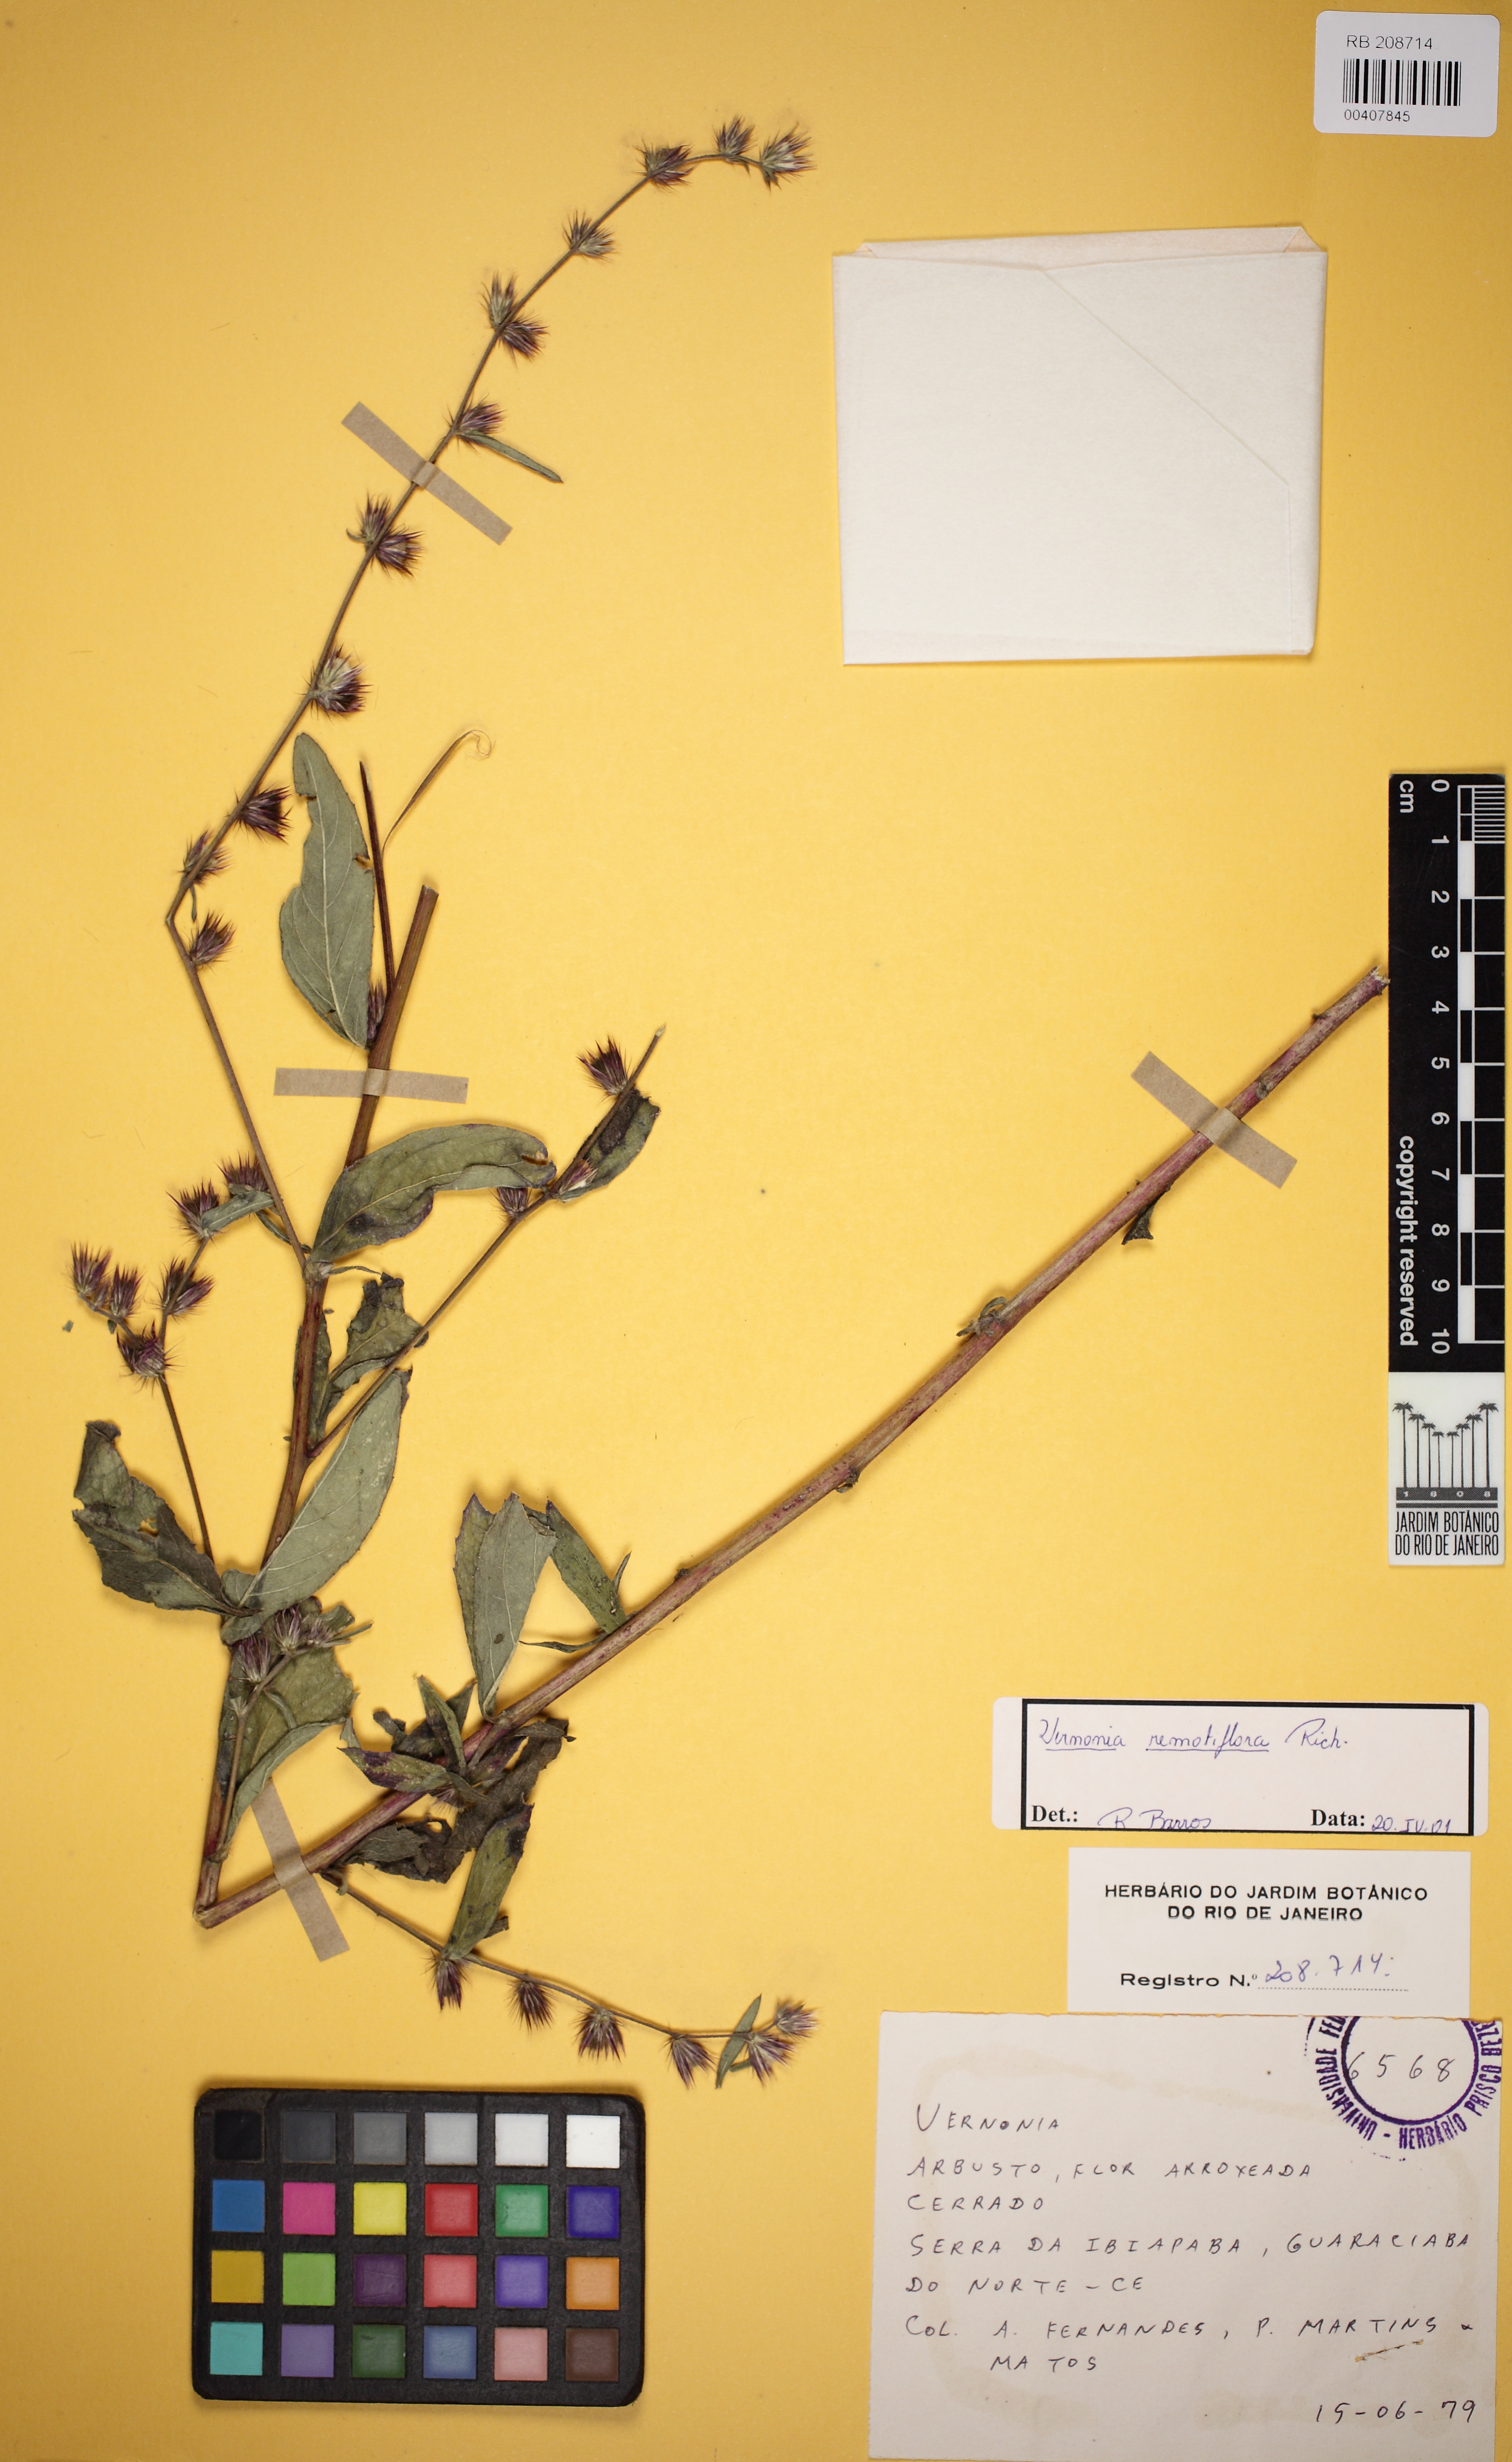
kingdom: Plantae
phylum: Tracheophyta
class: Magnoliopsida
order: Asterales
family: Asteraceae
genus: Lepidaploa
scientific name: Lepidaploa remotiflora
